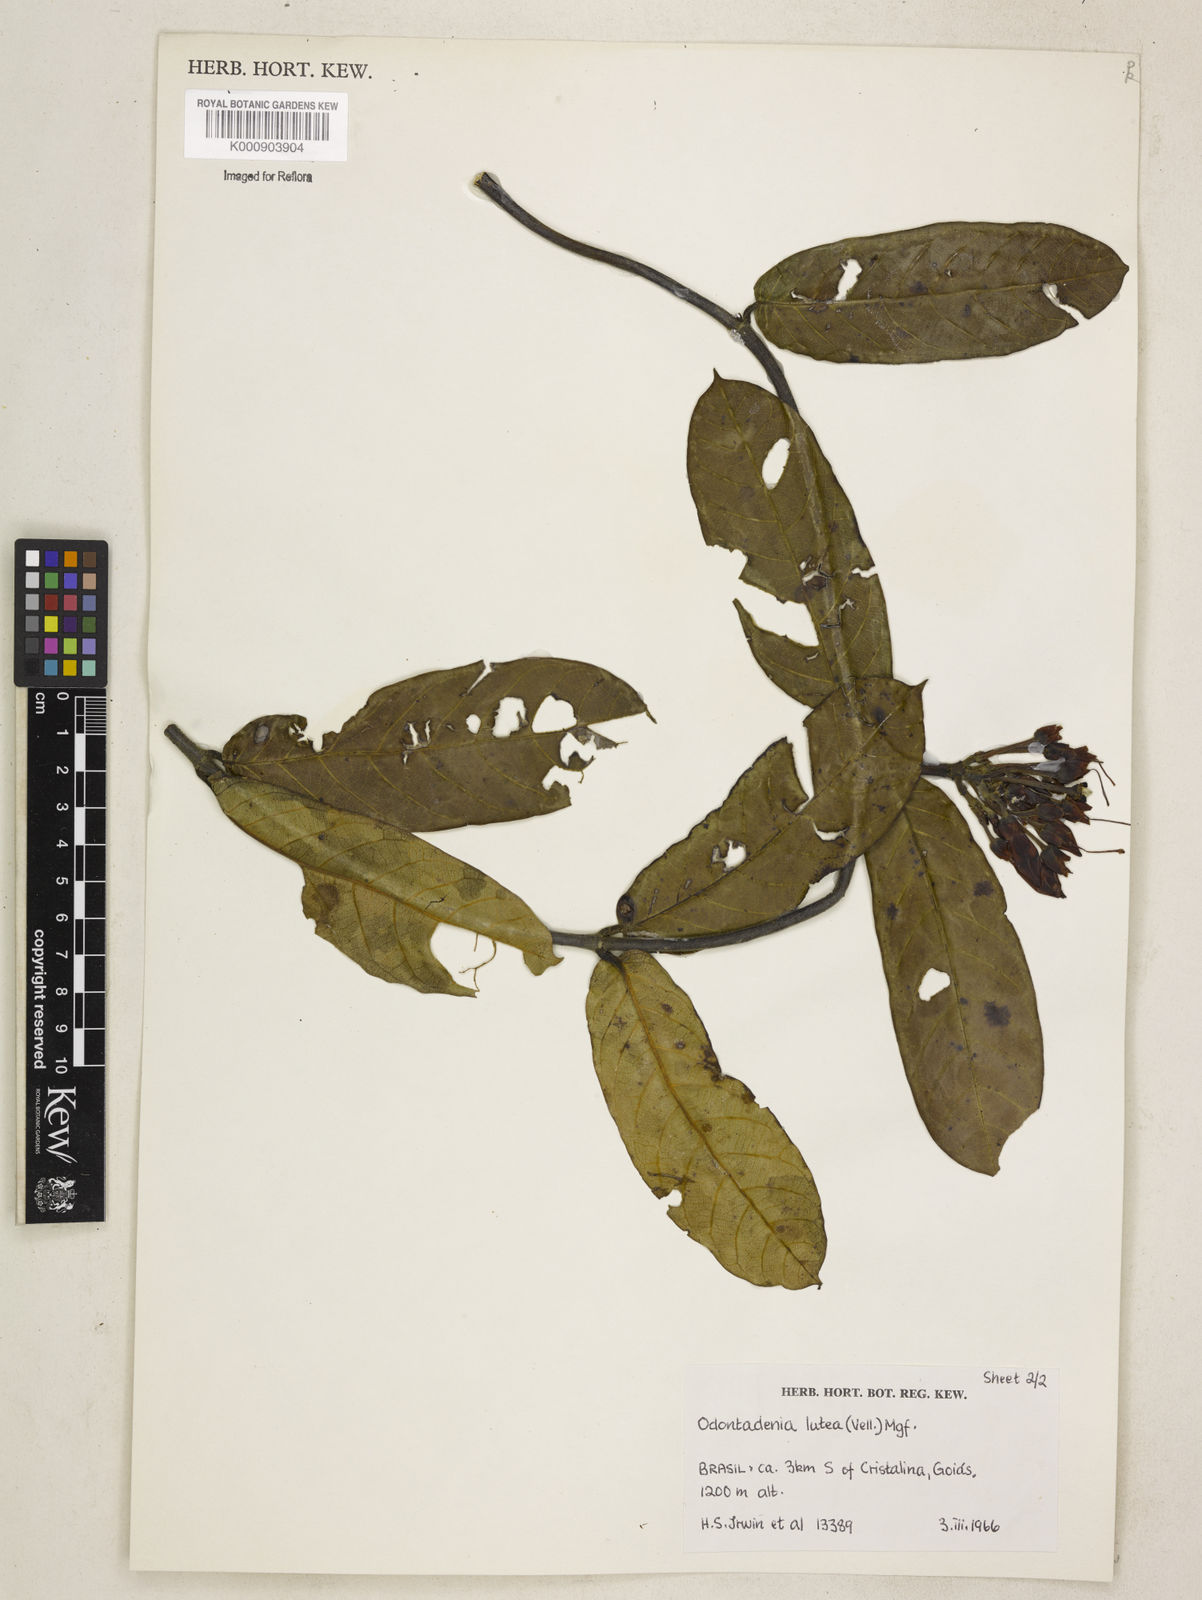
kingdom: Plantae
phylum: Tracheophyta
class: Magnoliopsida
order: Gentianales
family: Apocynaceae
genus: Odontadenia
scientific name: Odontadenia lutea
